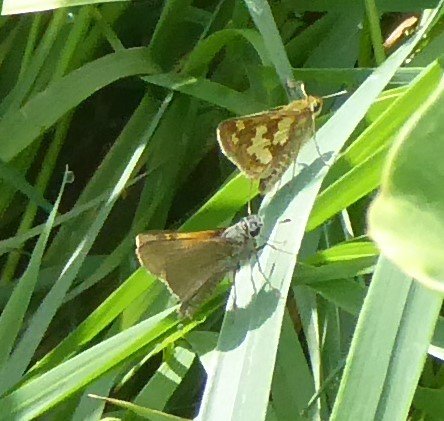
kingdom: Animalia
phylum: Arthropoda
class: Insecta
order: Lepidoptera
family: Hesperiidae
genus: Polites
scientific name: Polites coras
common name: Peck's Skipper
